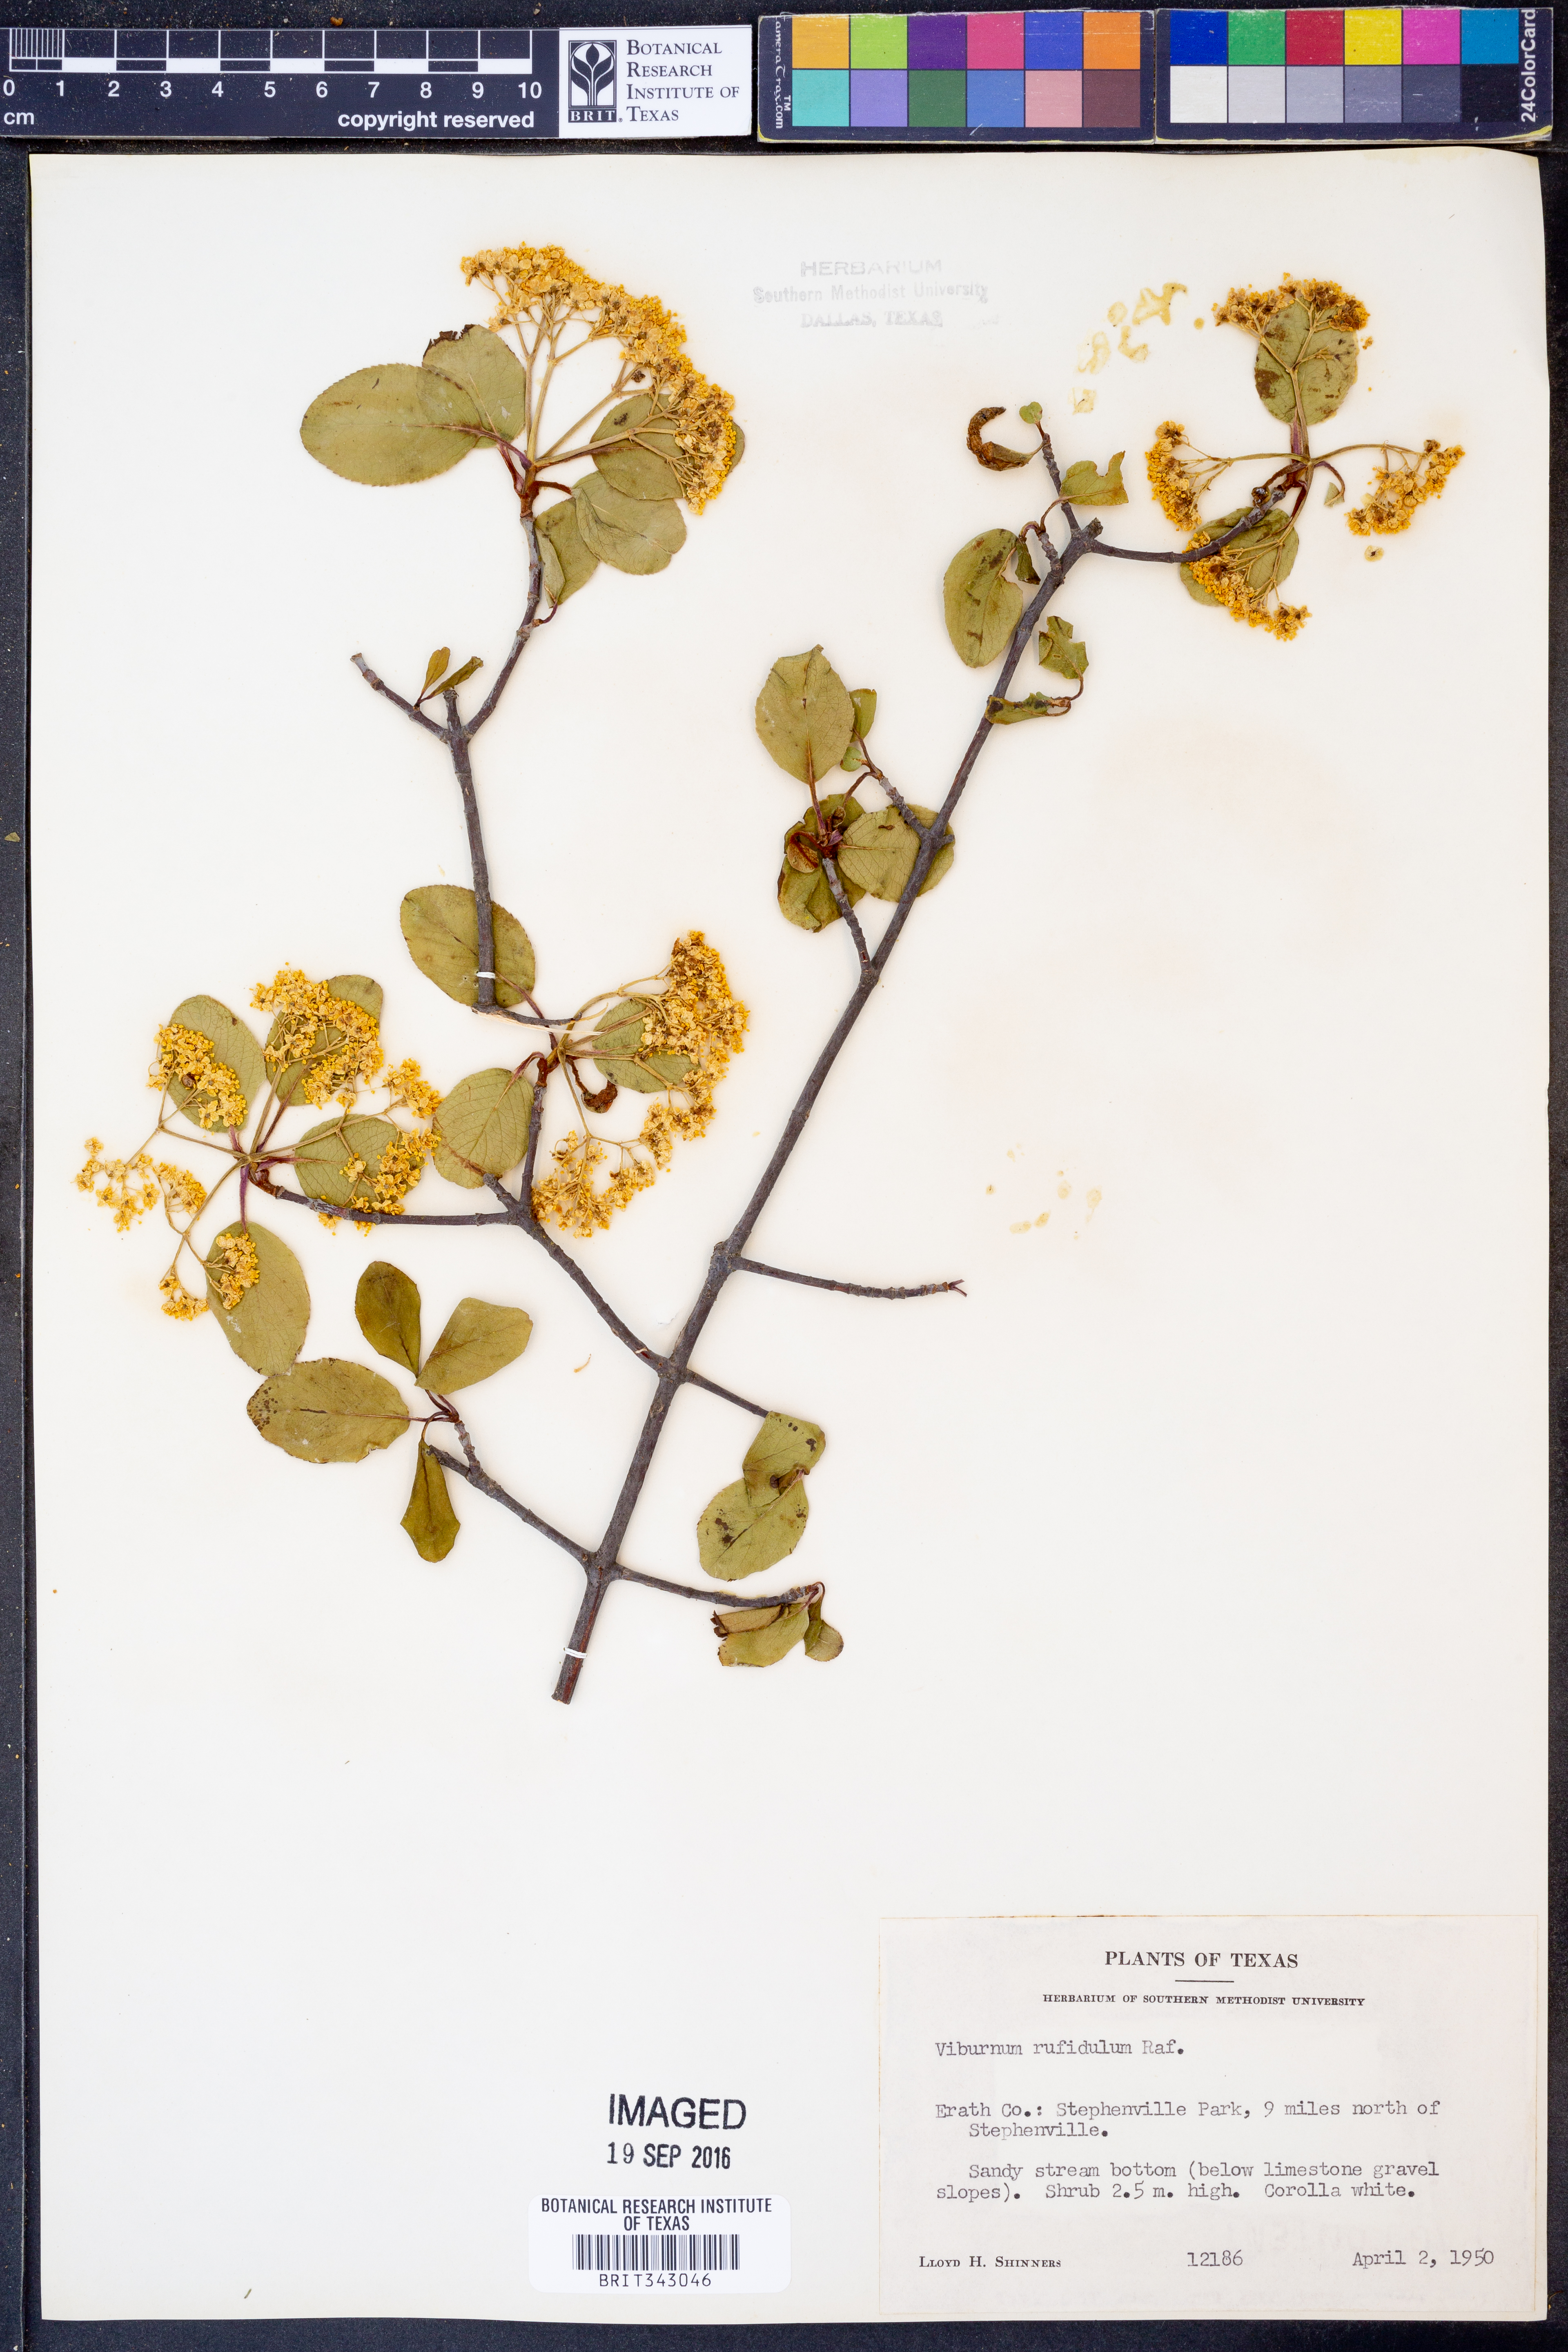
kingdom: Plantae
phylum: Tracheophyta
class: Magnoliopsida
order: Dipsacales
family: Viburnaceae
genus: Viburnum
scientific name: Viburnum rufidulum
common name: Blue haw
